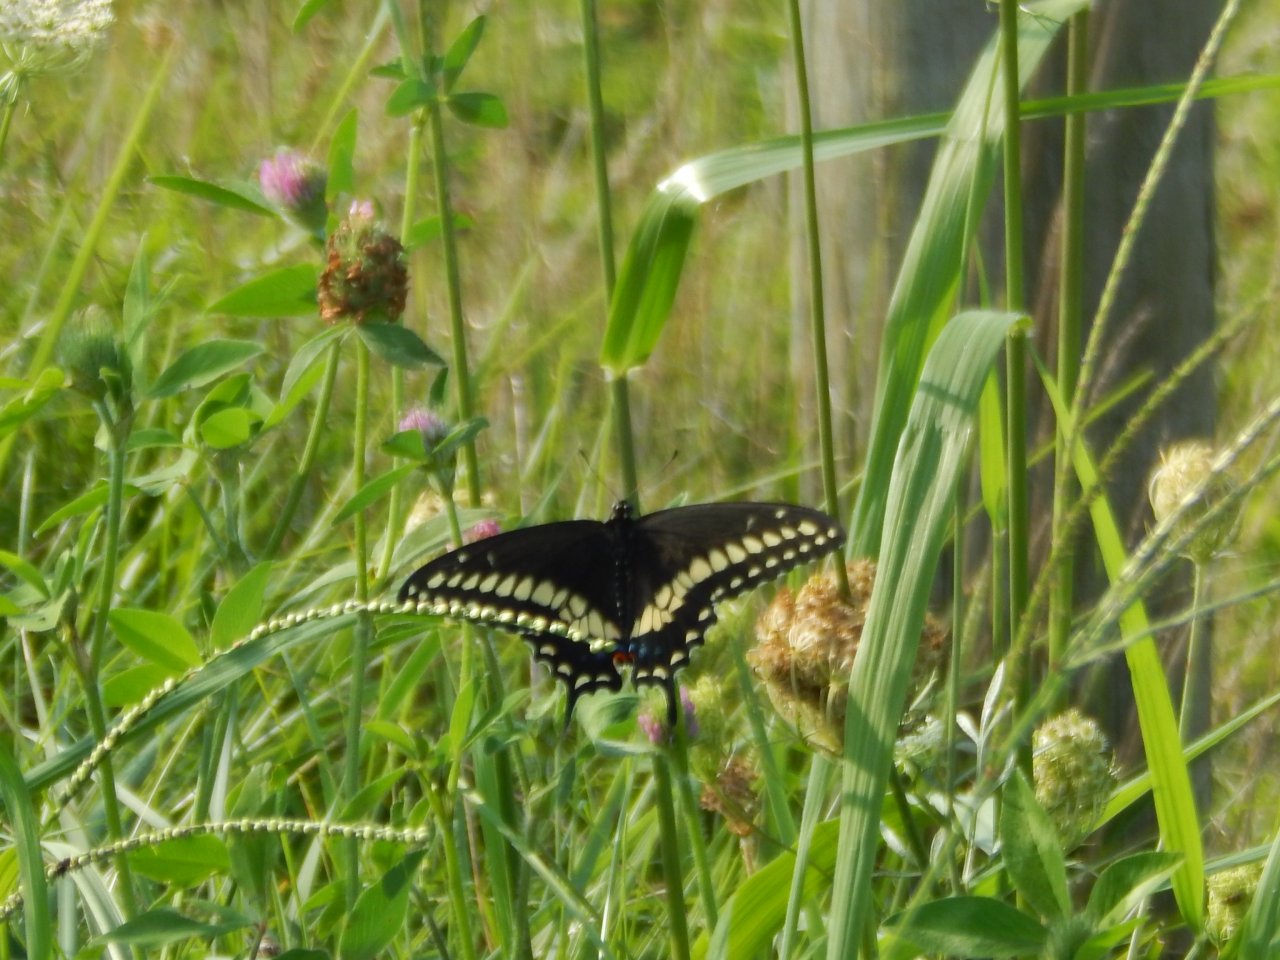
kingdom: Animalia
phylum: Arthropoda
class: Insecta
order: Lepidoptera
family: Papilionidae
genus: Papilio
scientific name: Papilio polyxenes
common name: Black Swallowtail
